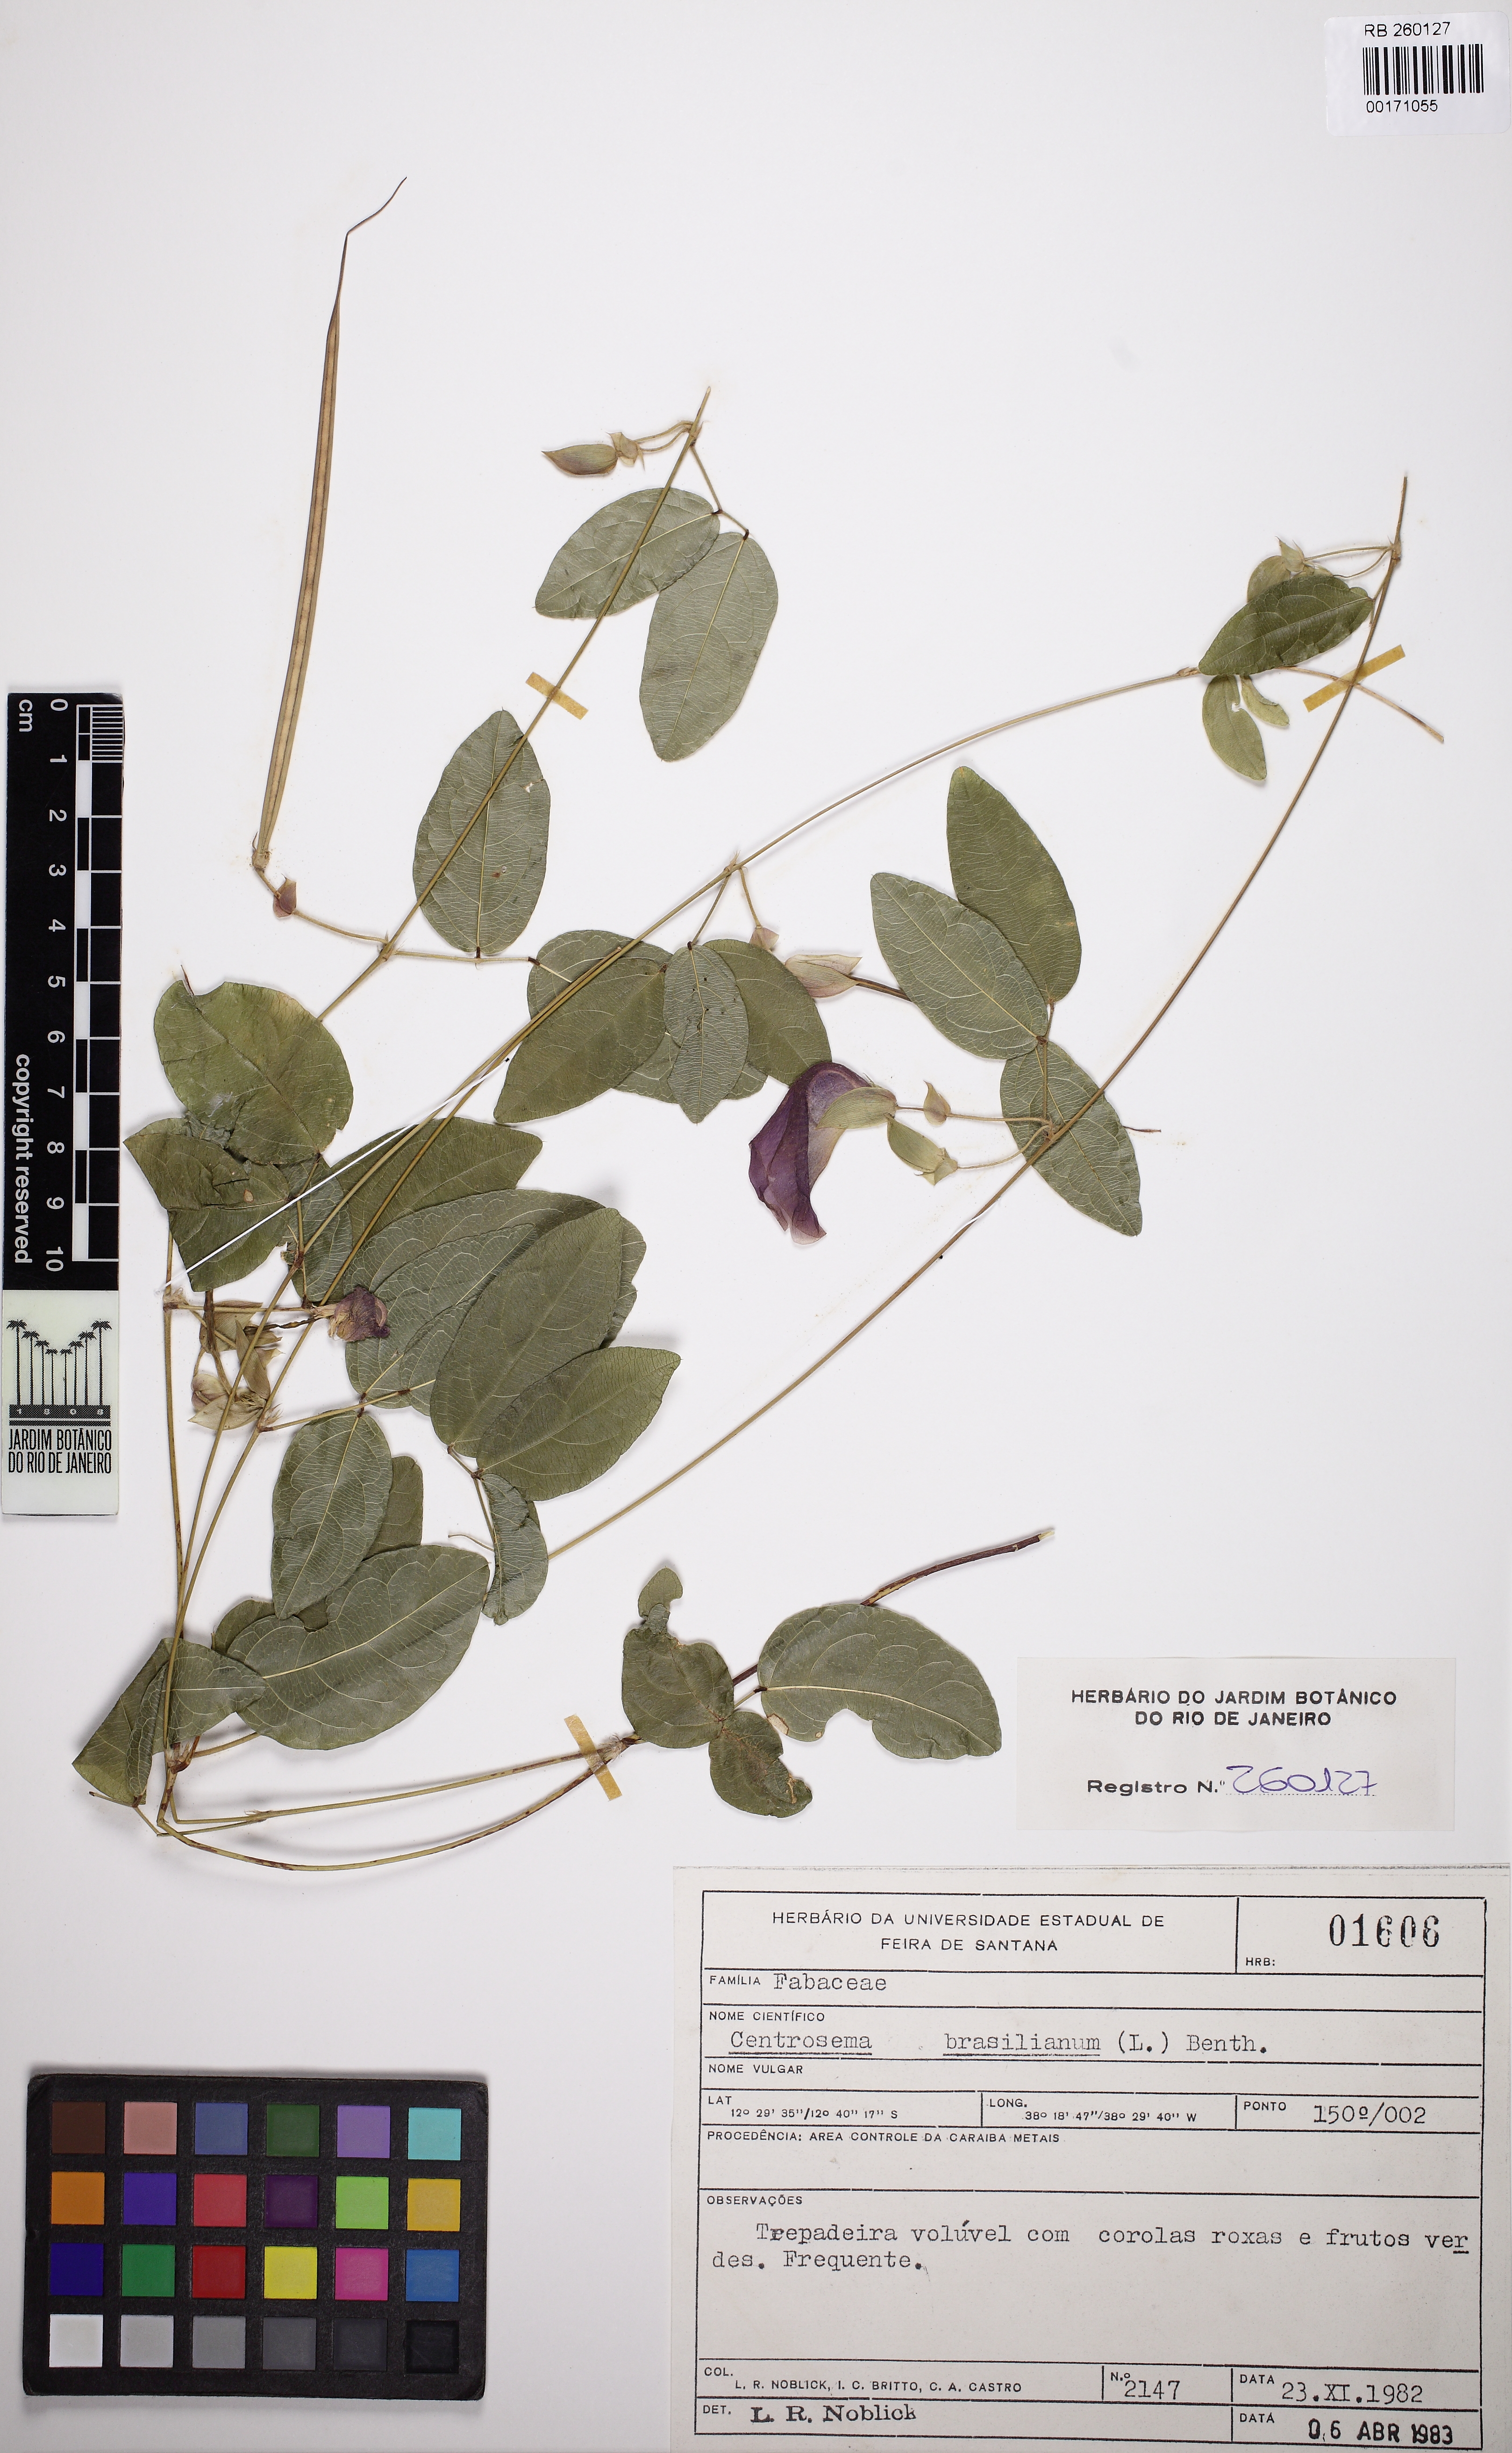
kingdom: Plantae
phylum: Tracheophyta
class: Magnoliopsida
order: Fabales
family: Fabaceae
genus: Centrosema
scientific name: Centrosema brasilianum
